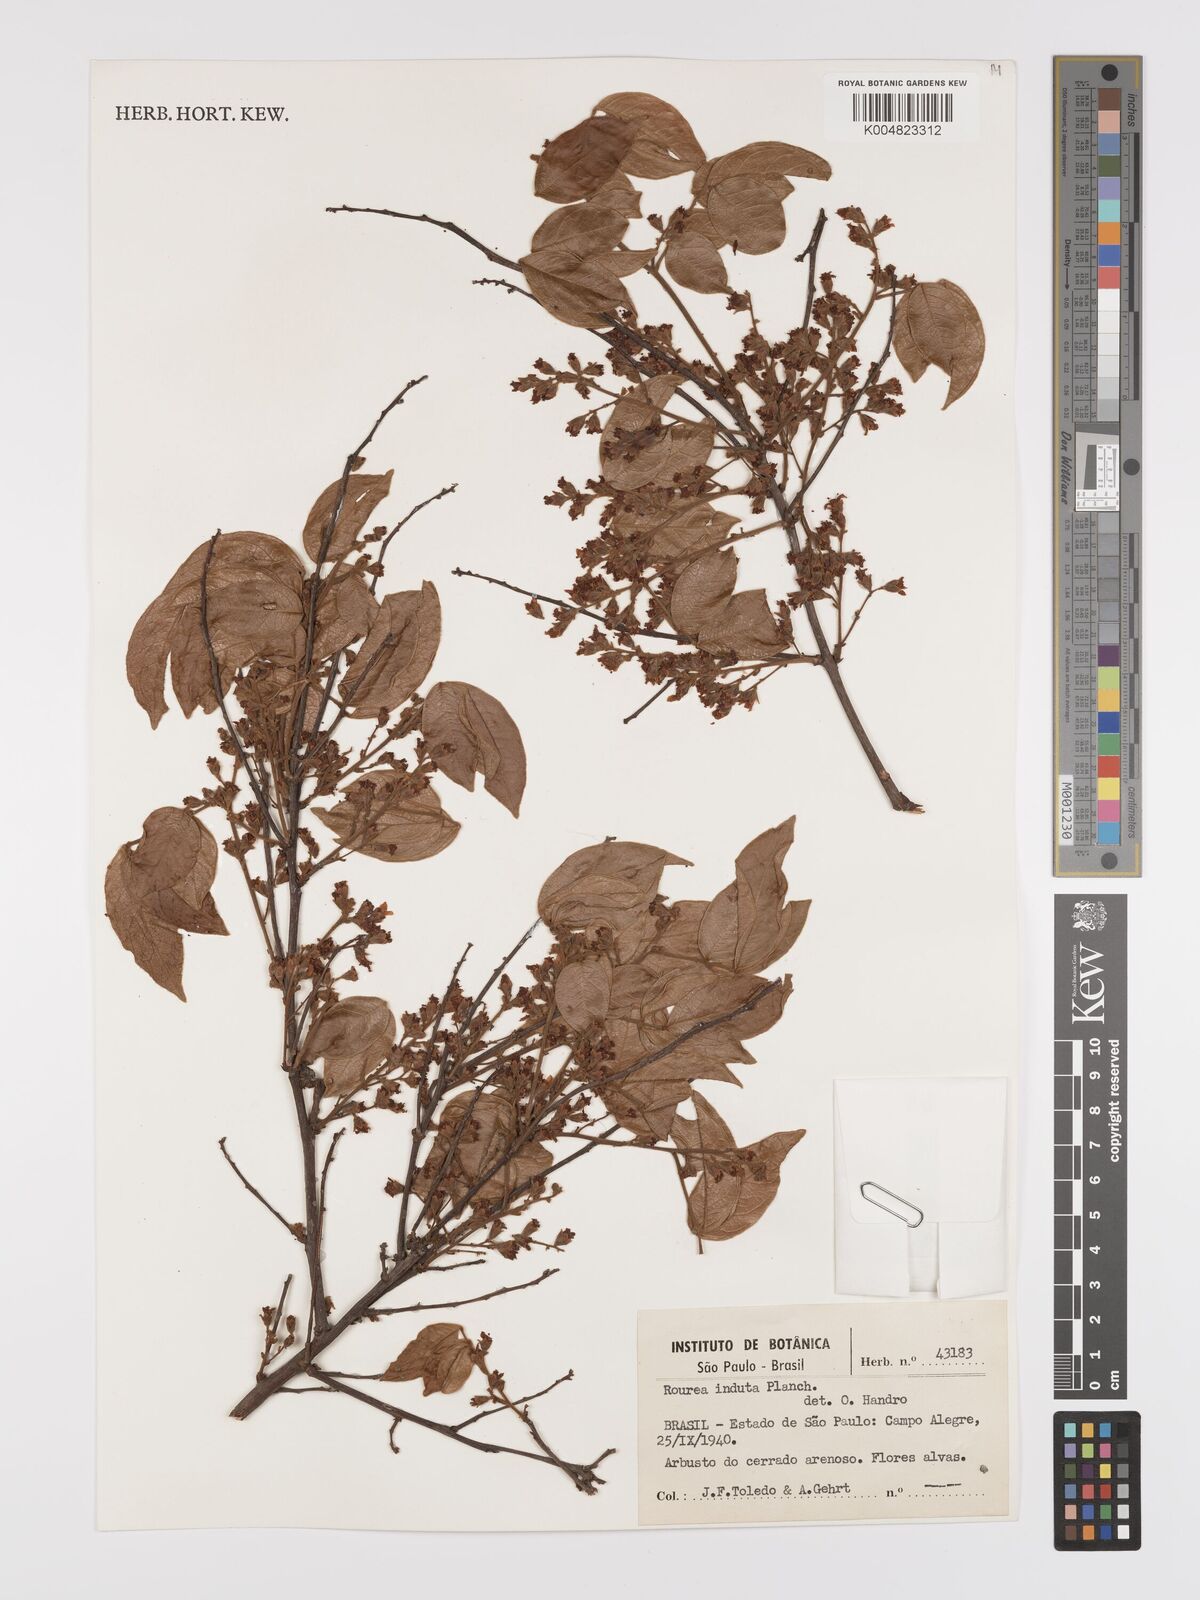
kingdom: Plantae
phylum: Tracheophyta
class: Magnoliopsida
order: Oxalidales
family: Connaraceae
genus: Rourea
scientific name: Rourea induta
